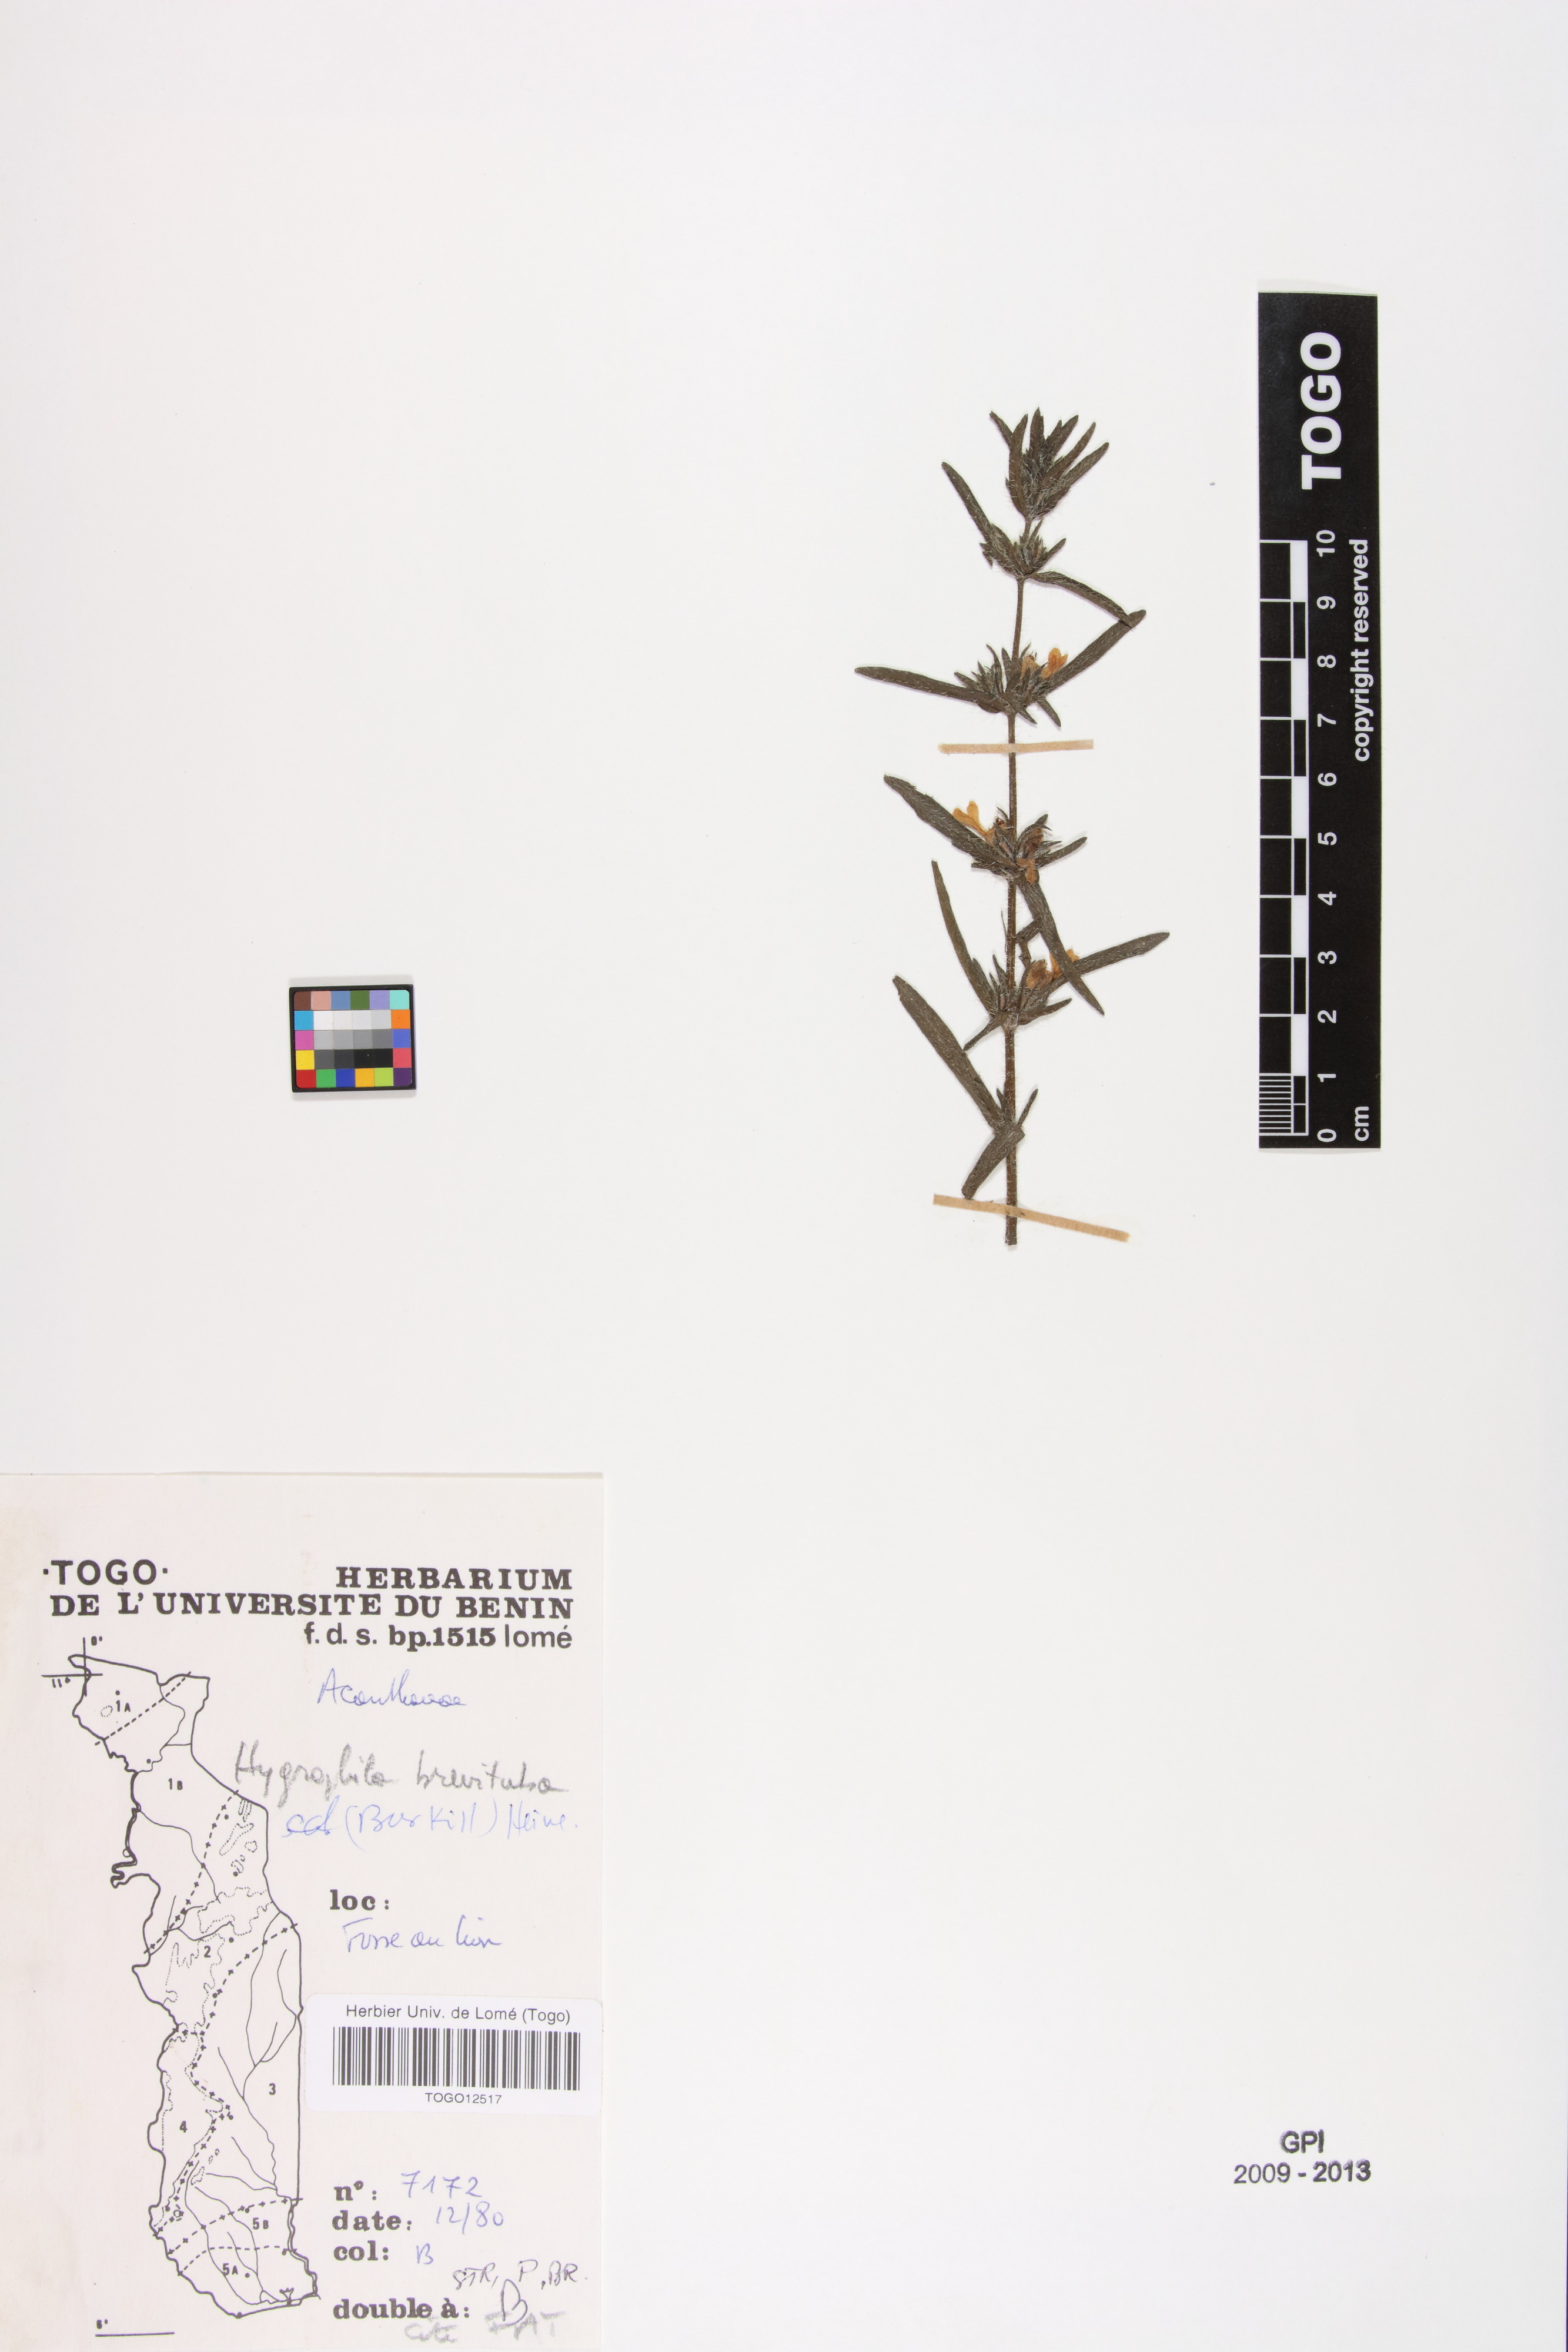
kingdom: Plantae
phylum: Tracheophyta
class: Magnoliopsida
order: Lamiales
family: Acanthaceae
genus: Hygrophila
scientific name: Hygrophila brevituba
